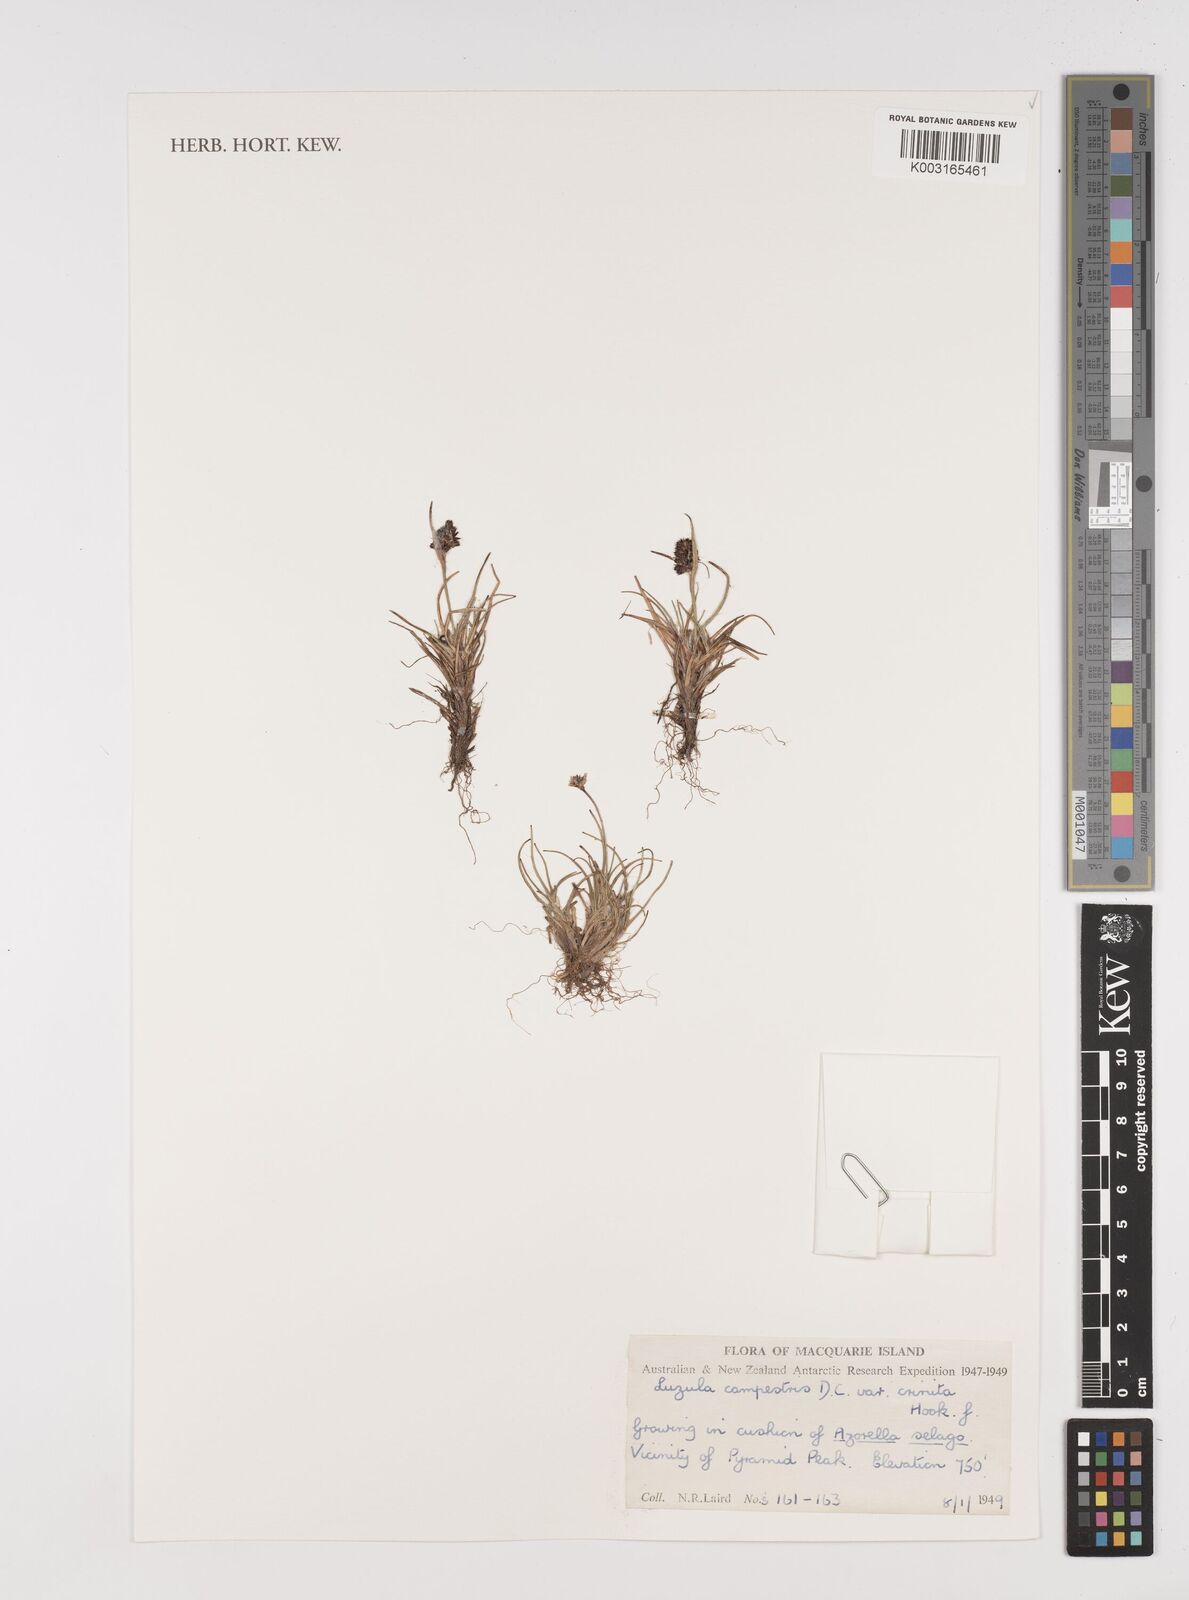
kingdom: Plantae
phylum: Tracheophyta
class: Liliopsida
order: Poales
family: Juncaceae
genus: Luzula
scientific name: Luzula crinita
